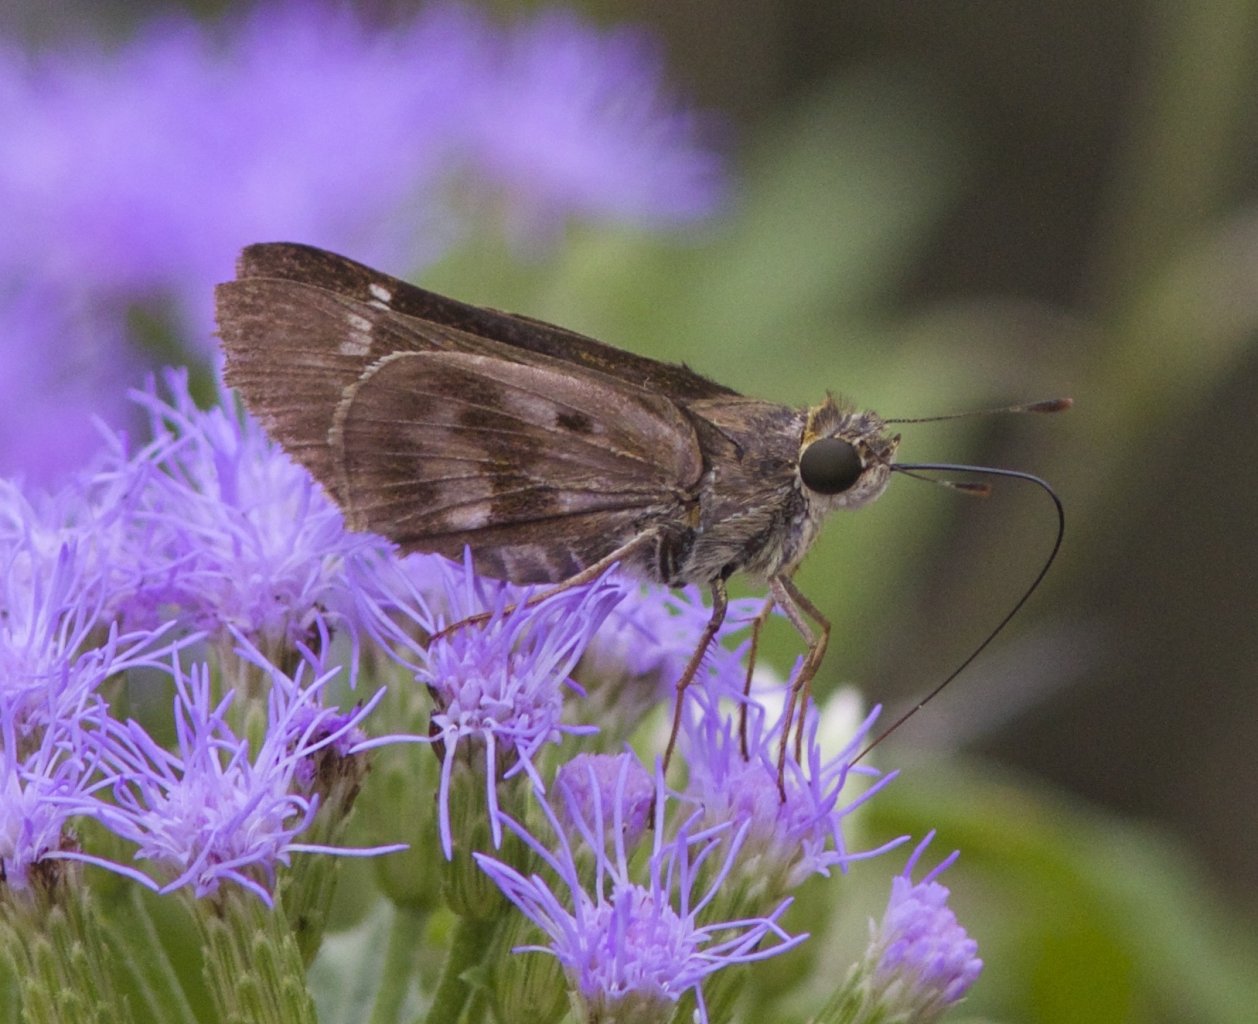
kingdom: Animalia
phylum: Arthropoda
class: Insecta
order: Lepidoptera
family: Hesperiidae
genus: Nyctelius
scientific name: Nyctelius nyctelius
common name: Violet-banded Skipper
